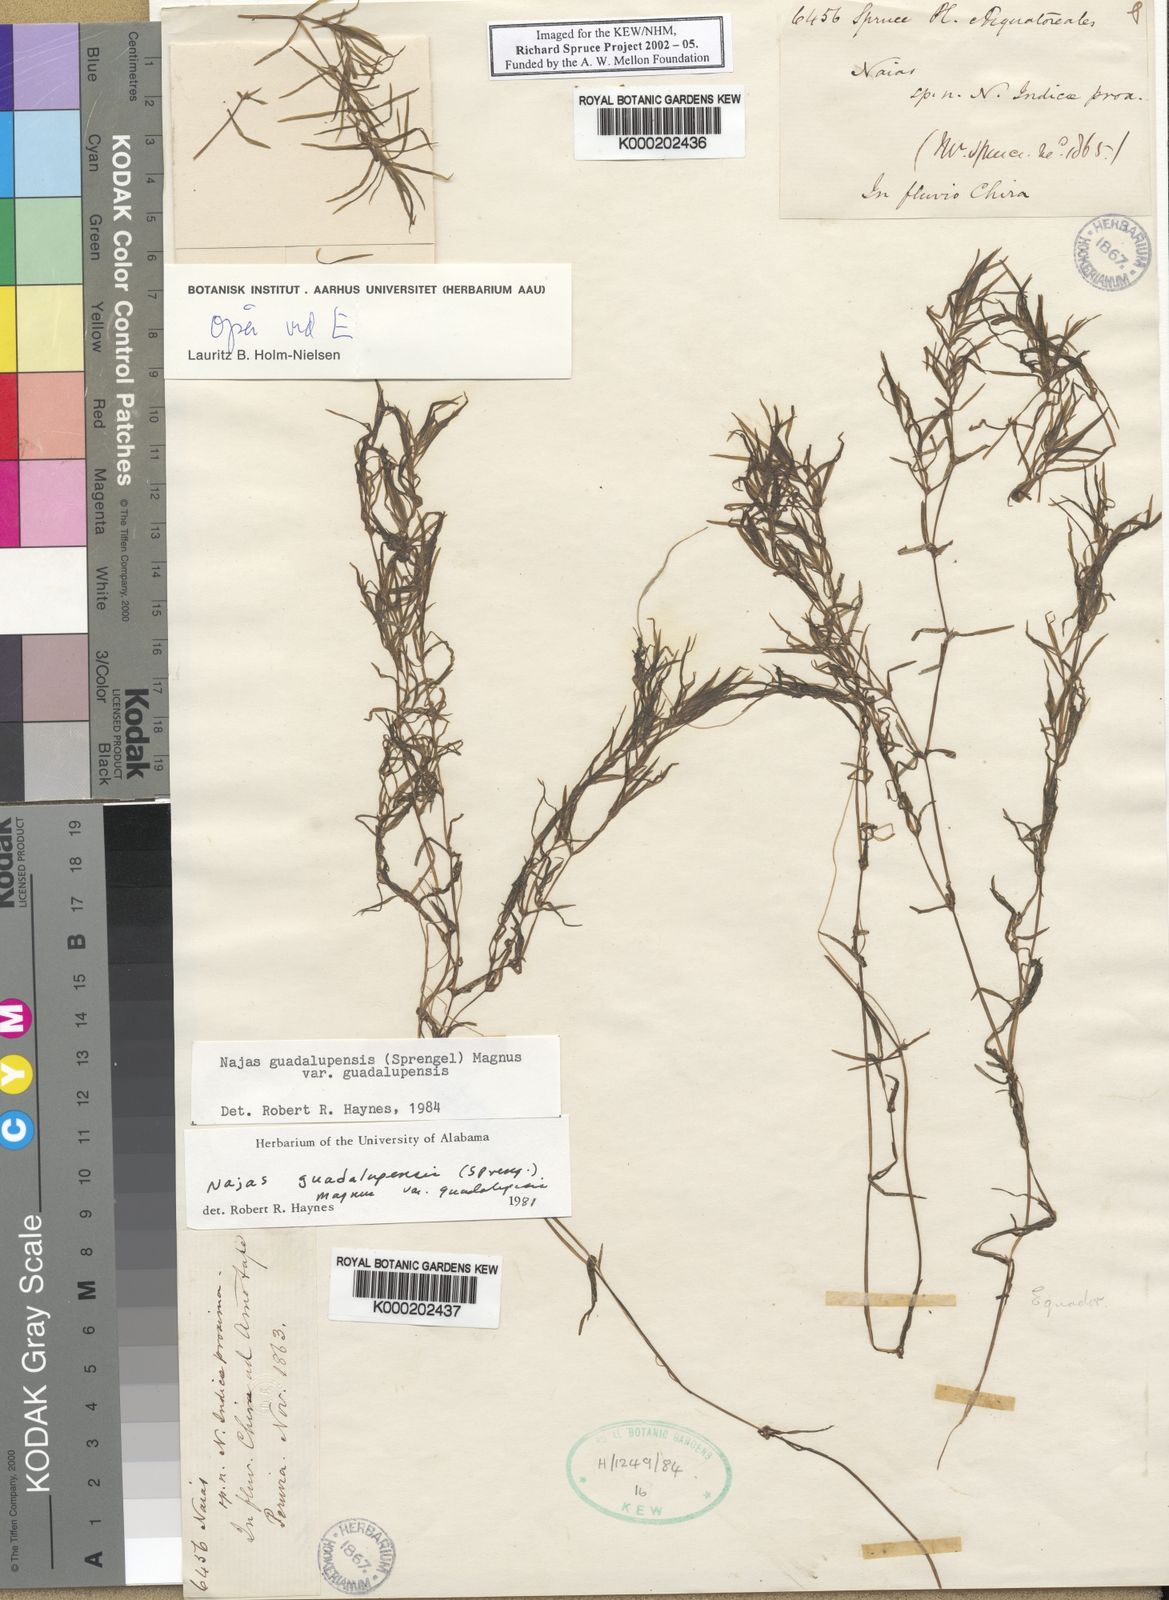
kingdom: Plantae
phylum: Tracheophyta
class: Liliopsida
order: Alismatales
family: Hydrocharitaceae
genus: Najas
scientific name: Najas guadalupensis
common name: Southern naiad
